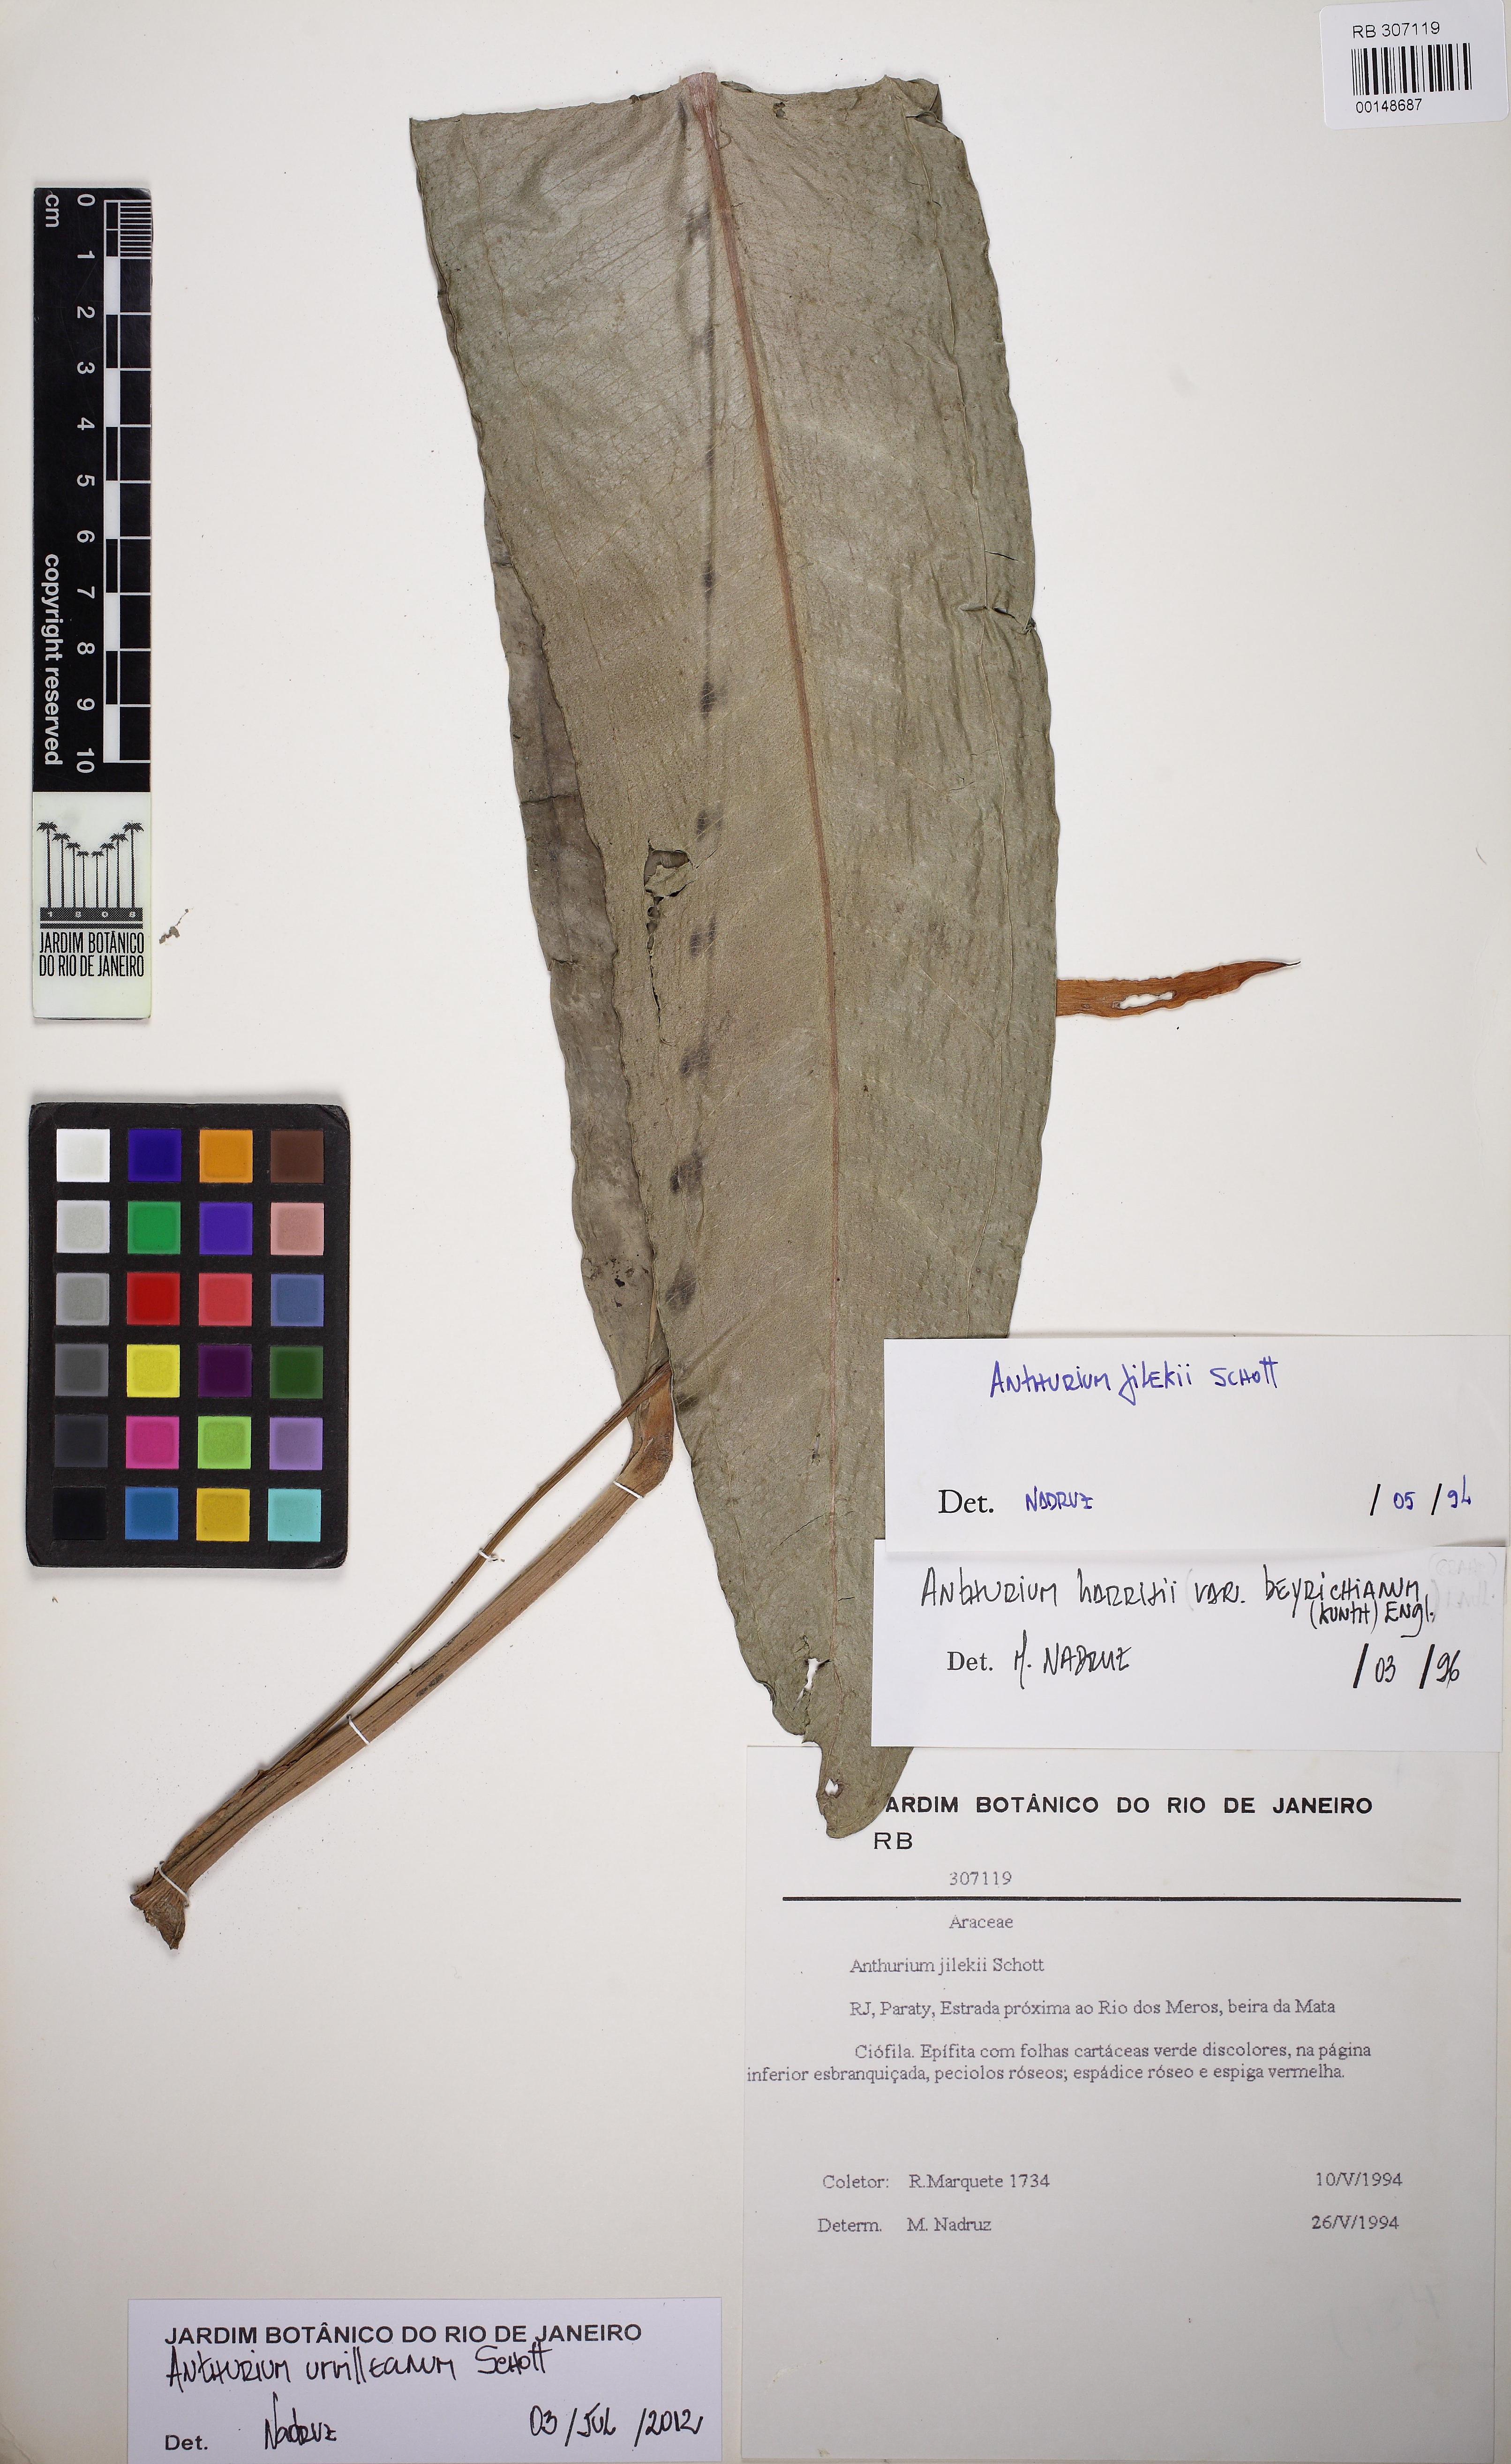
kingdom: Plantae
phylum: Tracheophyta
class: Liliopsida
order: Alismatales
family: Araceae
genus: Anthurium
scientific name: Anthurium urvilleanum
